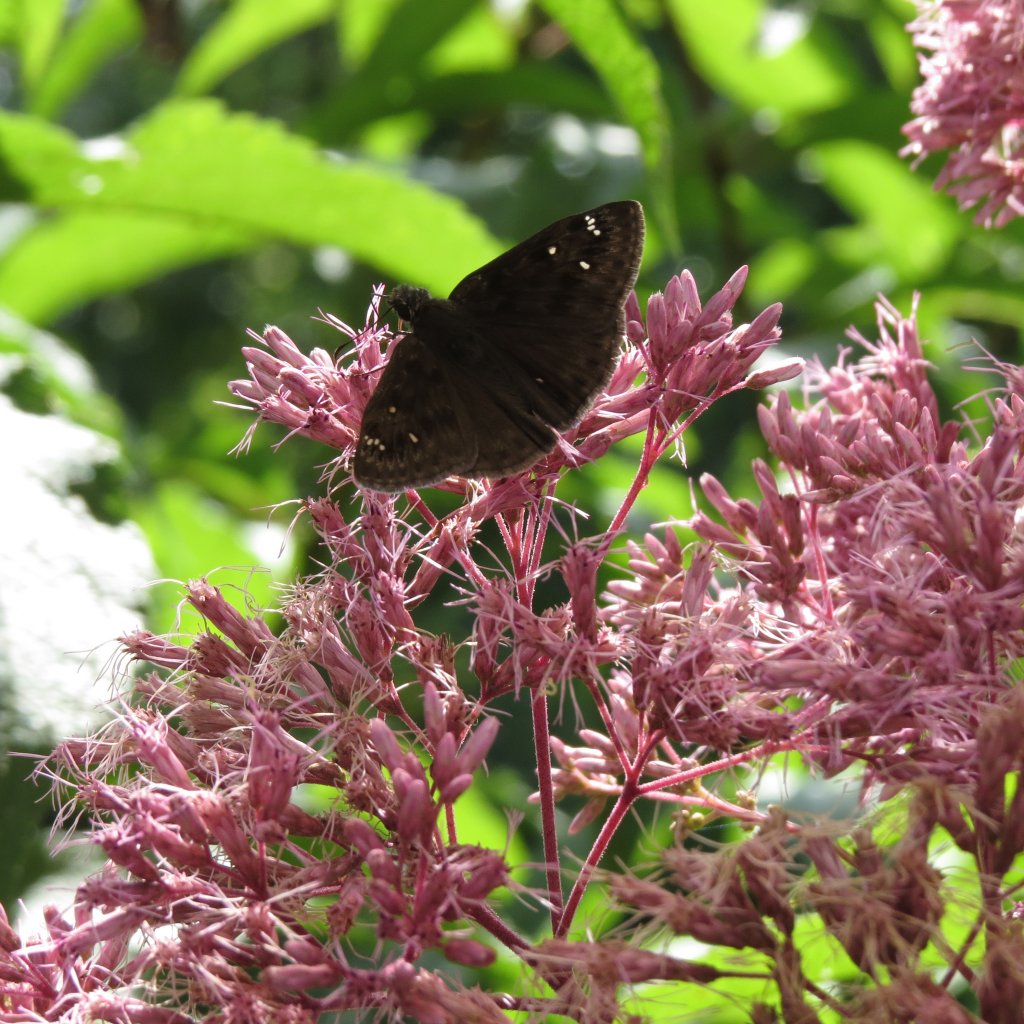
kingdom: Animalia
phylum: Arthropoda
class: Insecta
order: Lepidoptera
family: Hesperiidae
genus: Gesta
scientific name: Gesta
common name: Horace's Duskywing
